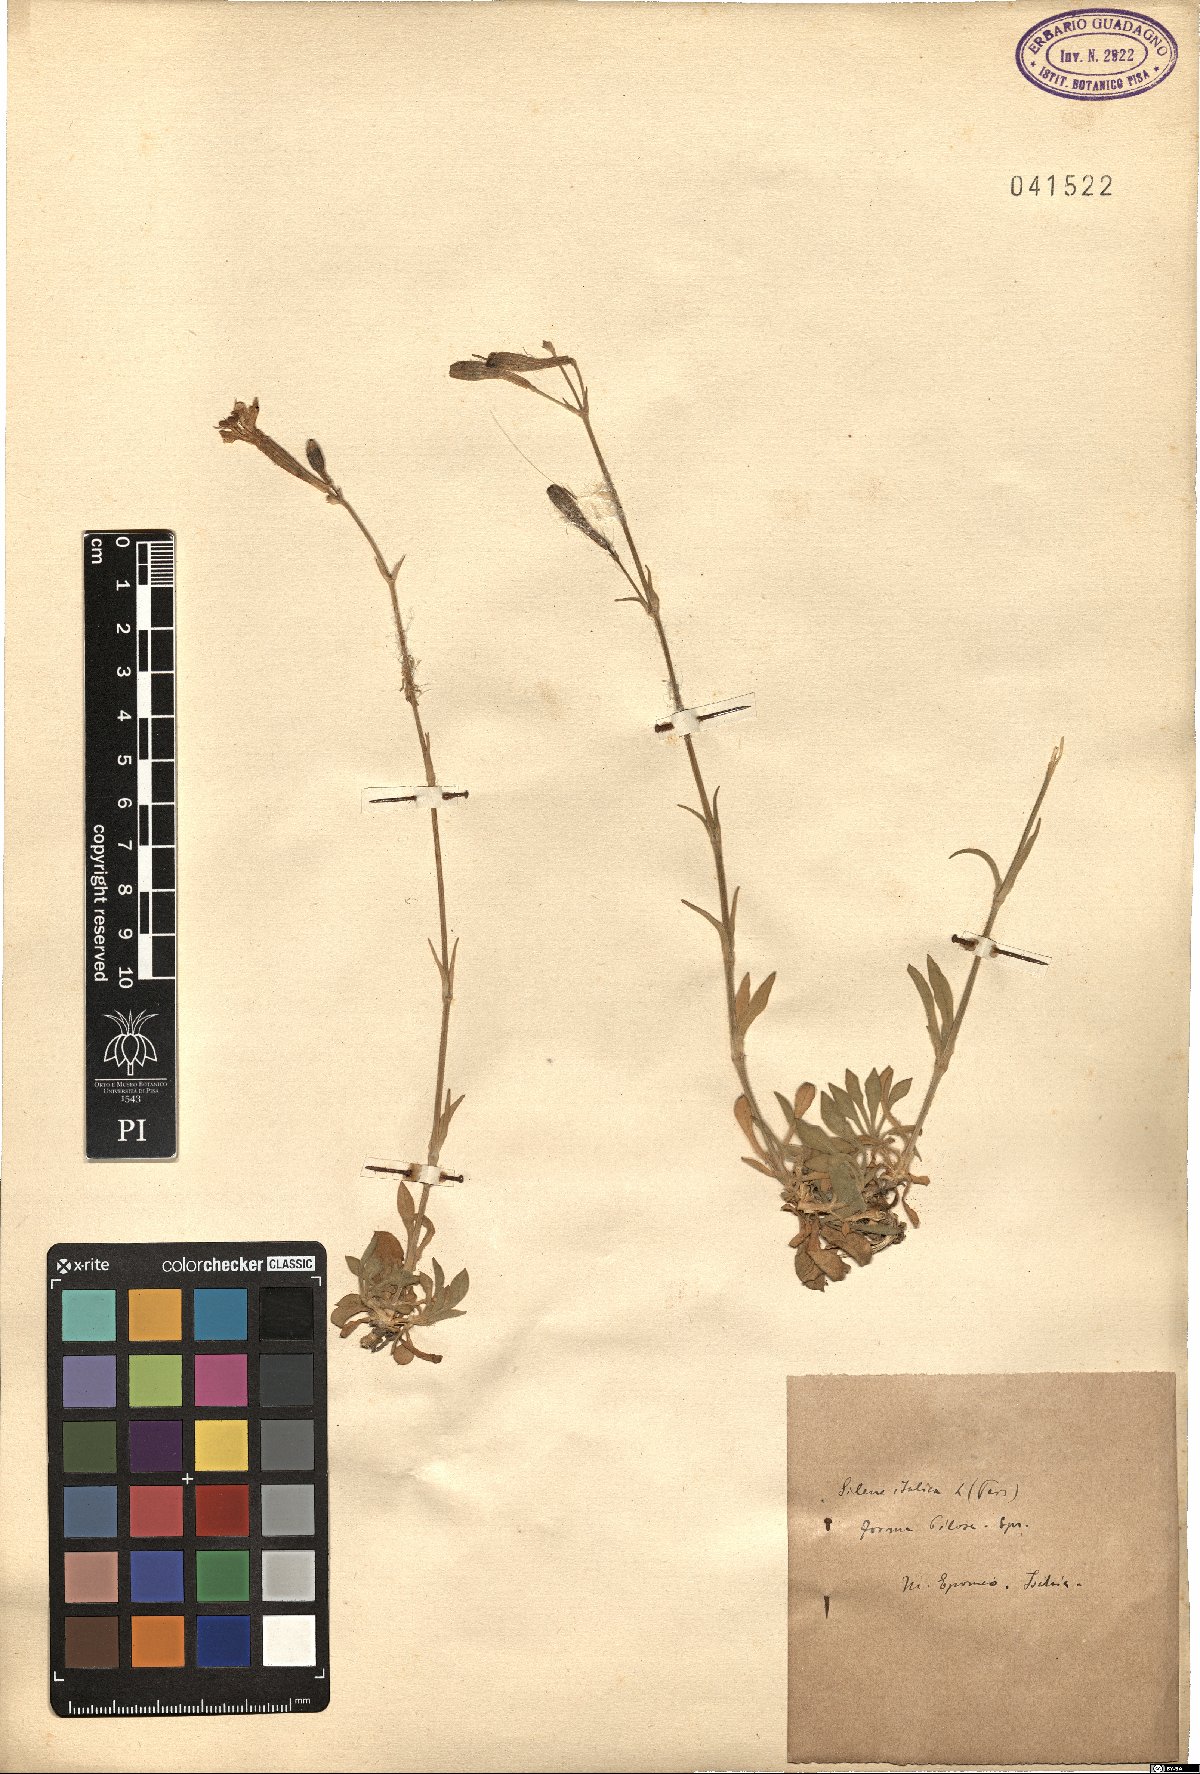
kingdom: Plantae
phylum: Tracheophyta
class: Magnoliopsida
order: Caryophyllales
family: Caryophyllaceae
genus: Silene
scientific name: Silene italica
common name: Italian catchfly
